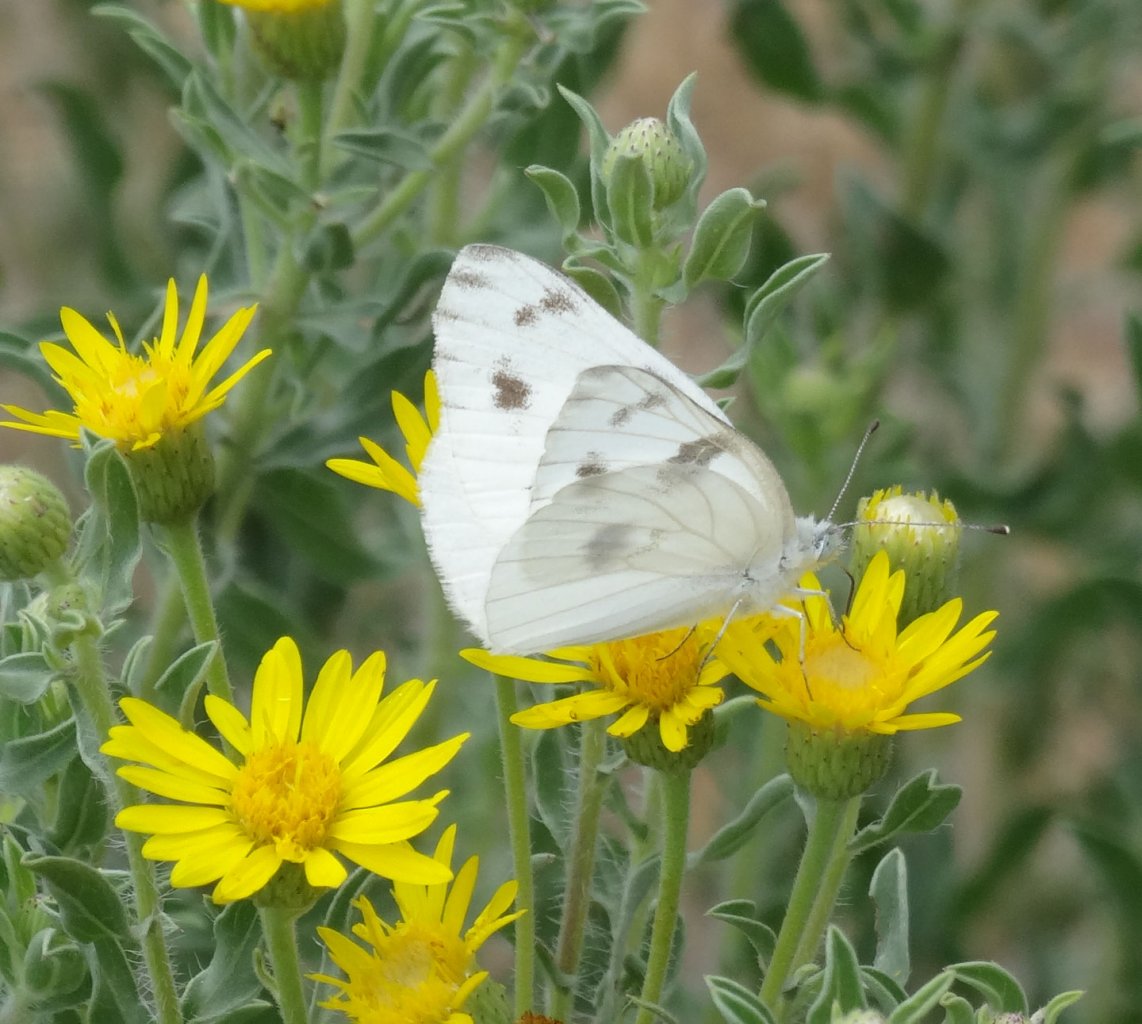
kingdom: Animalia
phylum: Arthropoda
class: Insecta
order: Lepidoptera
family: Pieridae
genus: Pontia
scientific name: Pontia protodice
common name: Checkered White
